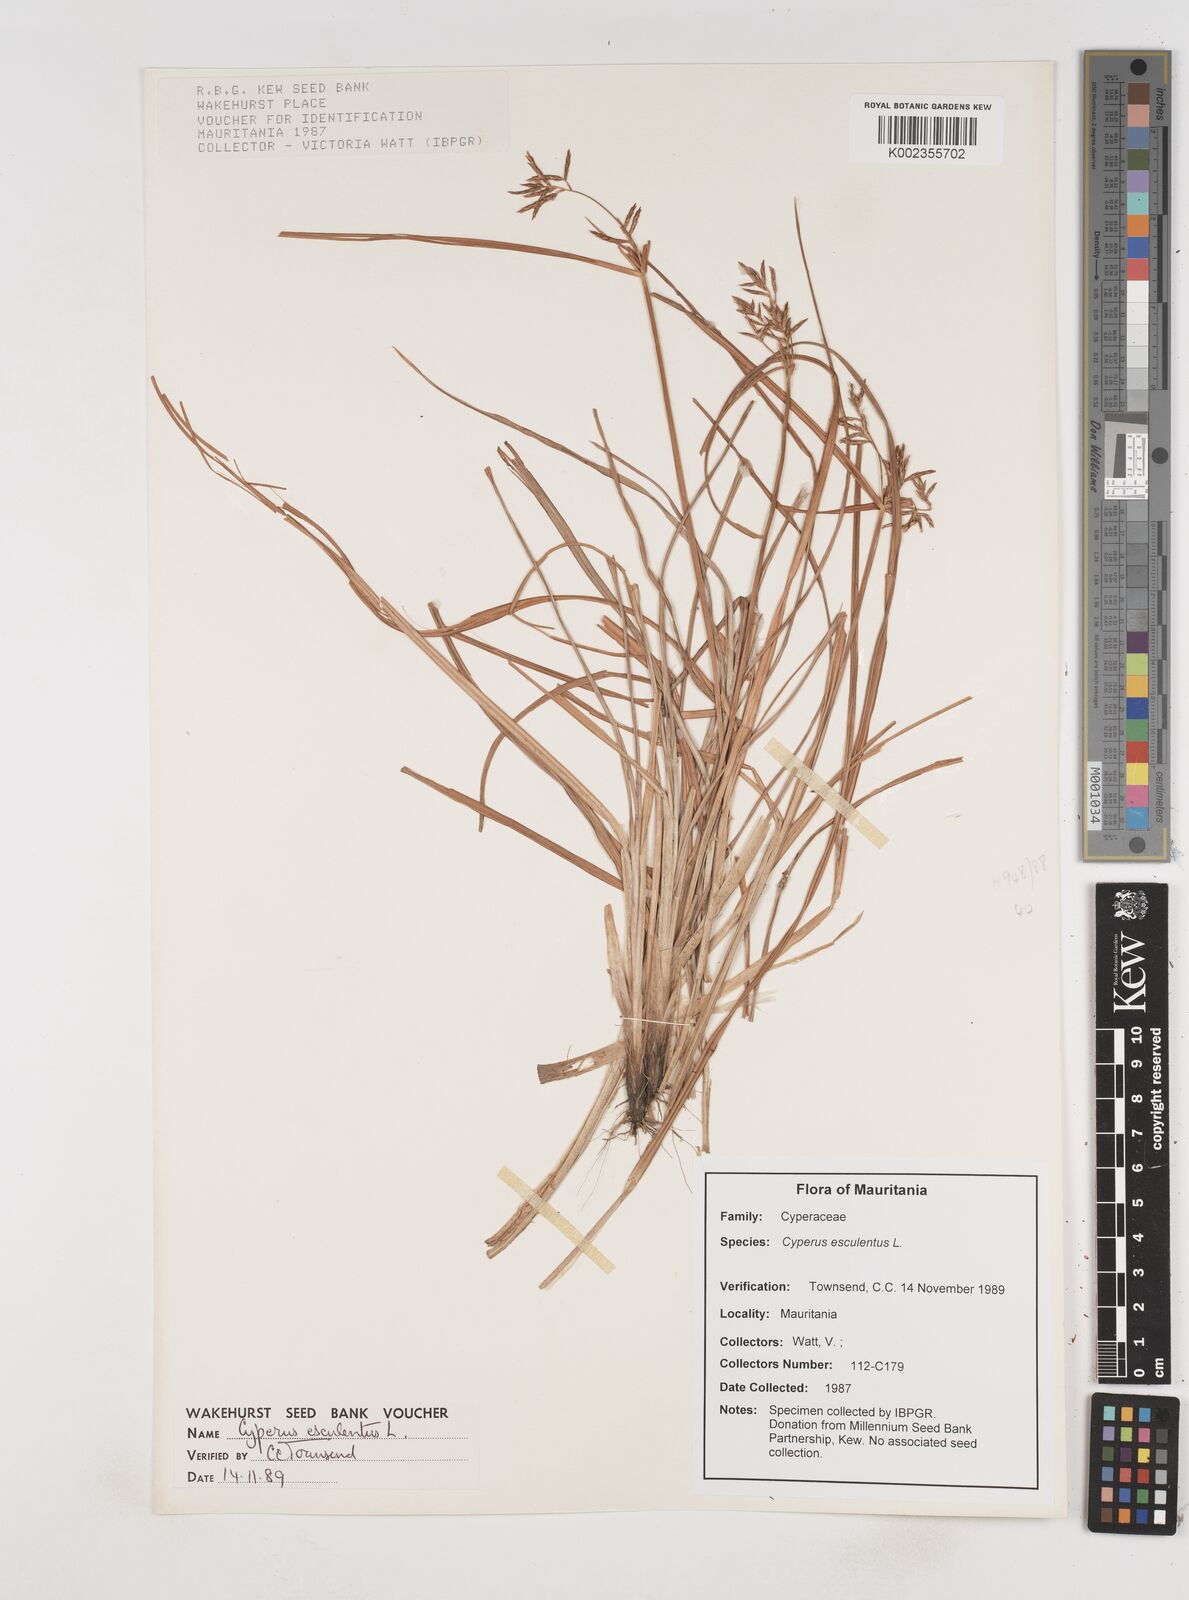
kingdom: Plantae
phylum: Tracheophyta
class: Liliopsida
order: Poales
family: Cyperaceae
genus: Cyperus
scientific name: Cyperus esculentus
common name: Yellow nutsedge
